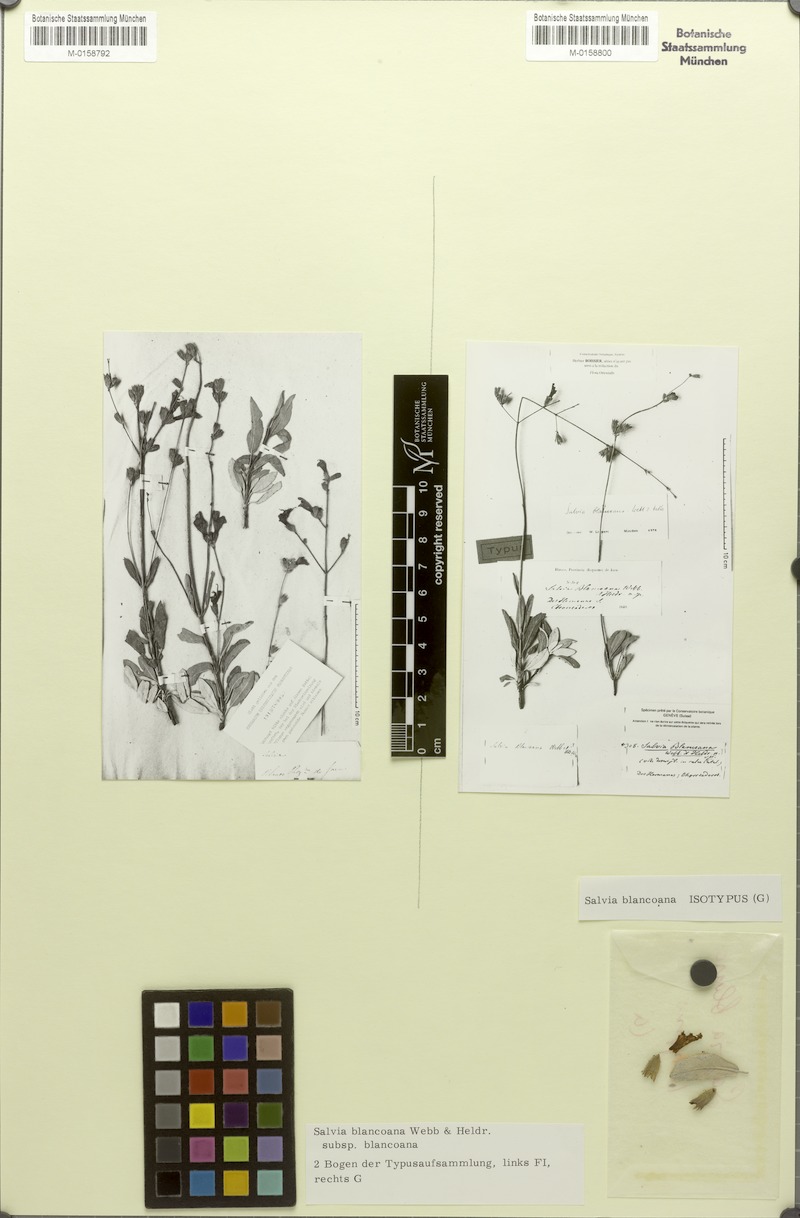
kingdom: Plantae
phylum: Tracheophyta
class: Magnoliopsida
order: Lamiales
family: Lamiaceae
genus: Salvia
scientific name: Salvia blancoana
